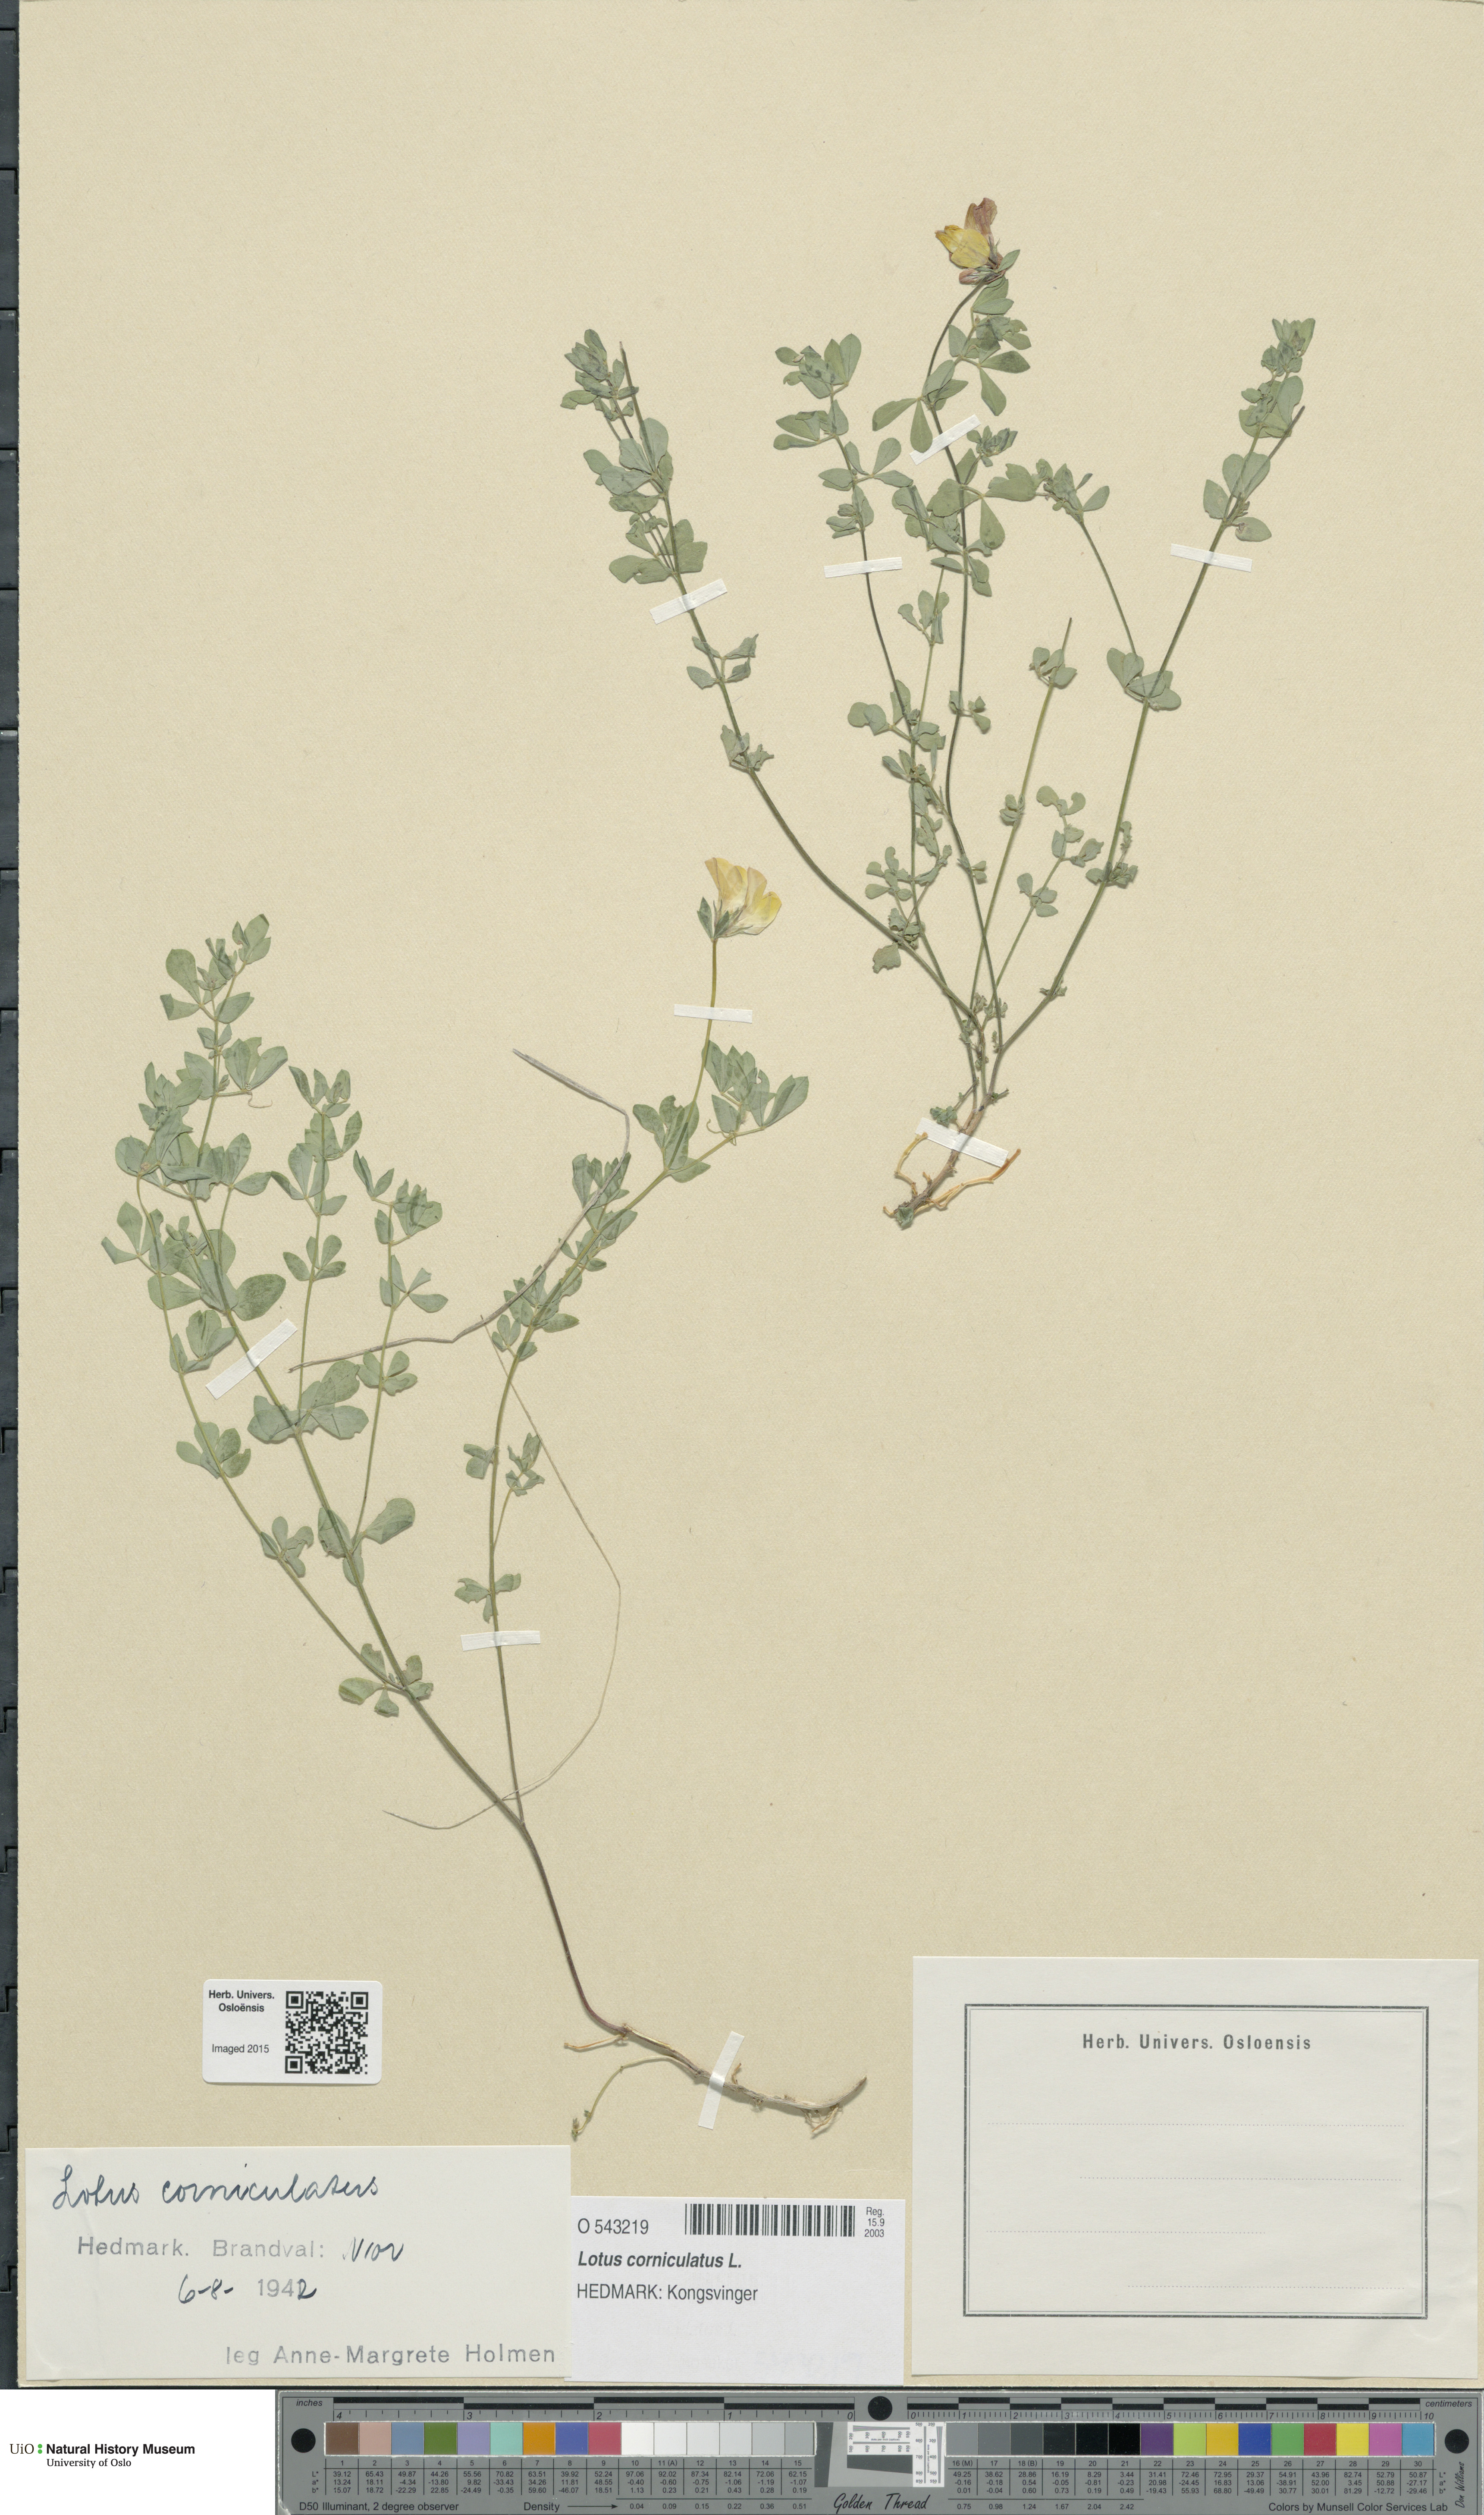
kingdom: Plantae
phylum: Tracheophyta
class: Magnoliopsida
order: Fabales
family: Fabaceae
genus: Lotus
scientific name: Lotus corniculatus
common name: Common bird's-foot-trefoil
